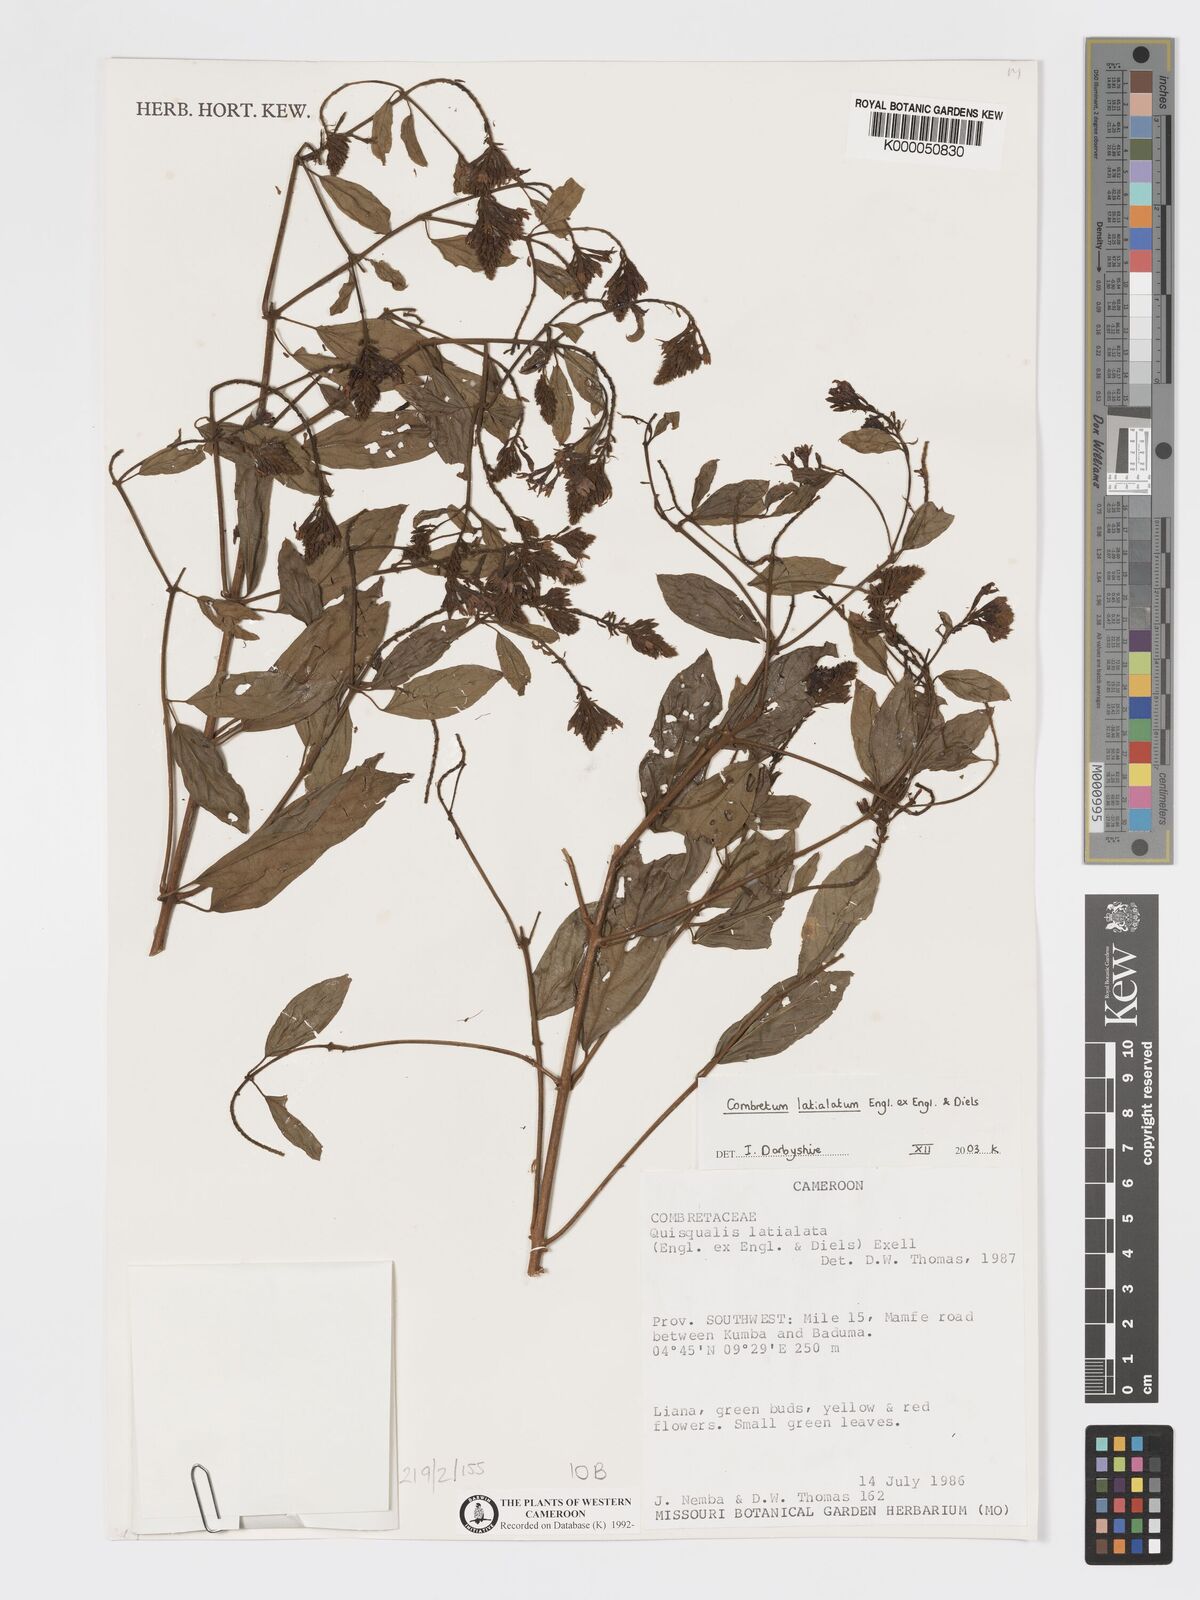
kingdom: Plantae
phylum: Tracheophyta
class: Magnoliopsida
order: Myrtales
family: Combretaceae
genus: Combretum
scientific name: Combretum latialatum
